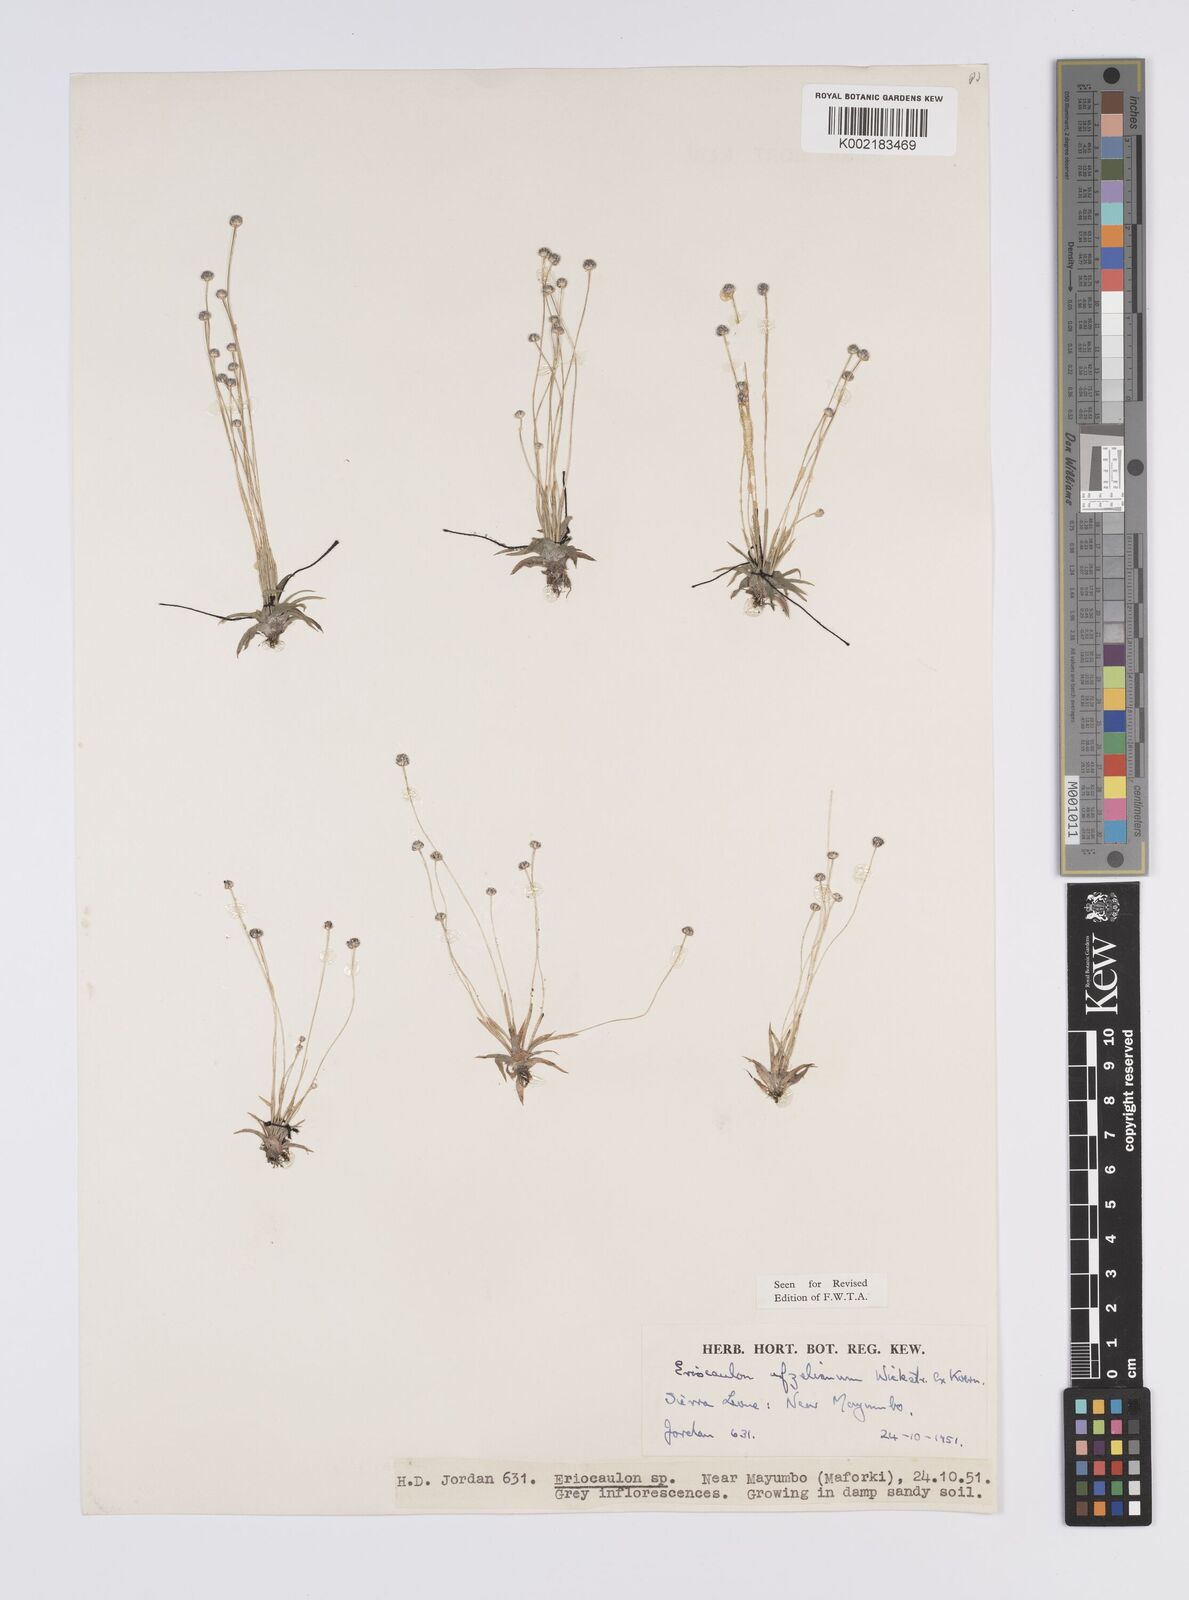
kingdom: Plantae
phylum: Tracheophyta
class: Liliopsida
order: Poales
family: Eriocaulaceae
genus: Eriocaulon
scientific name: Eriocaulon afzelianum
